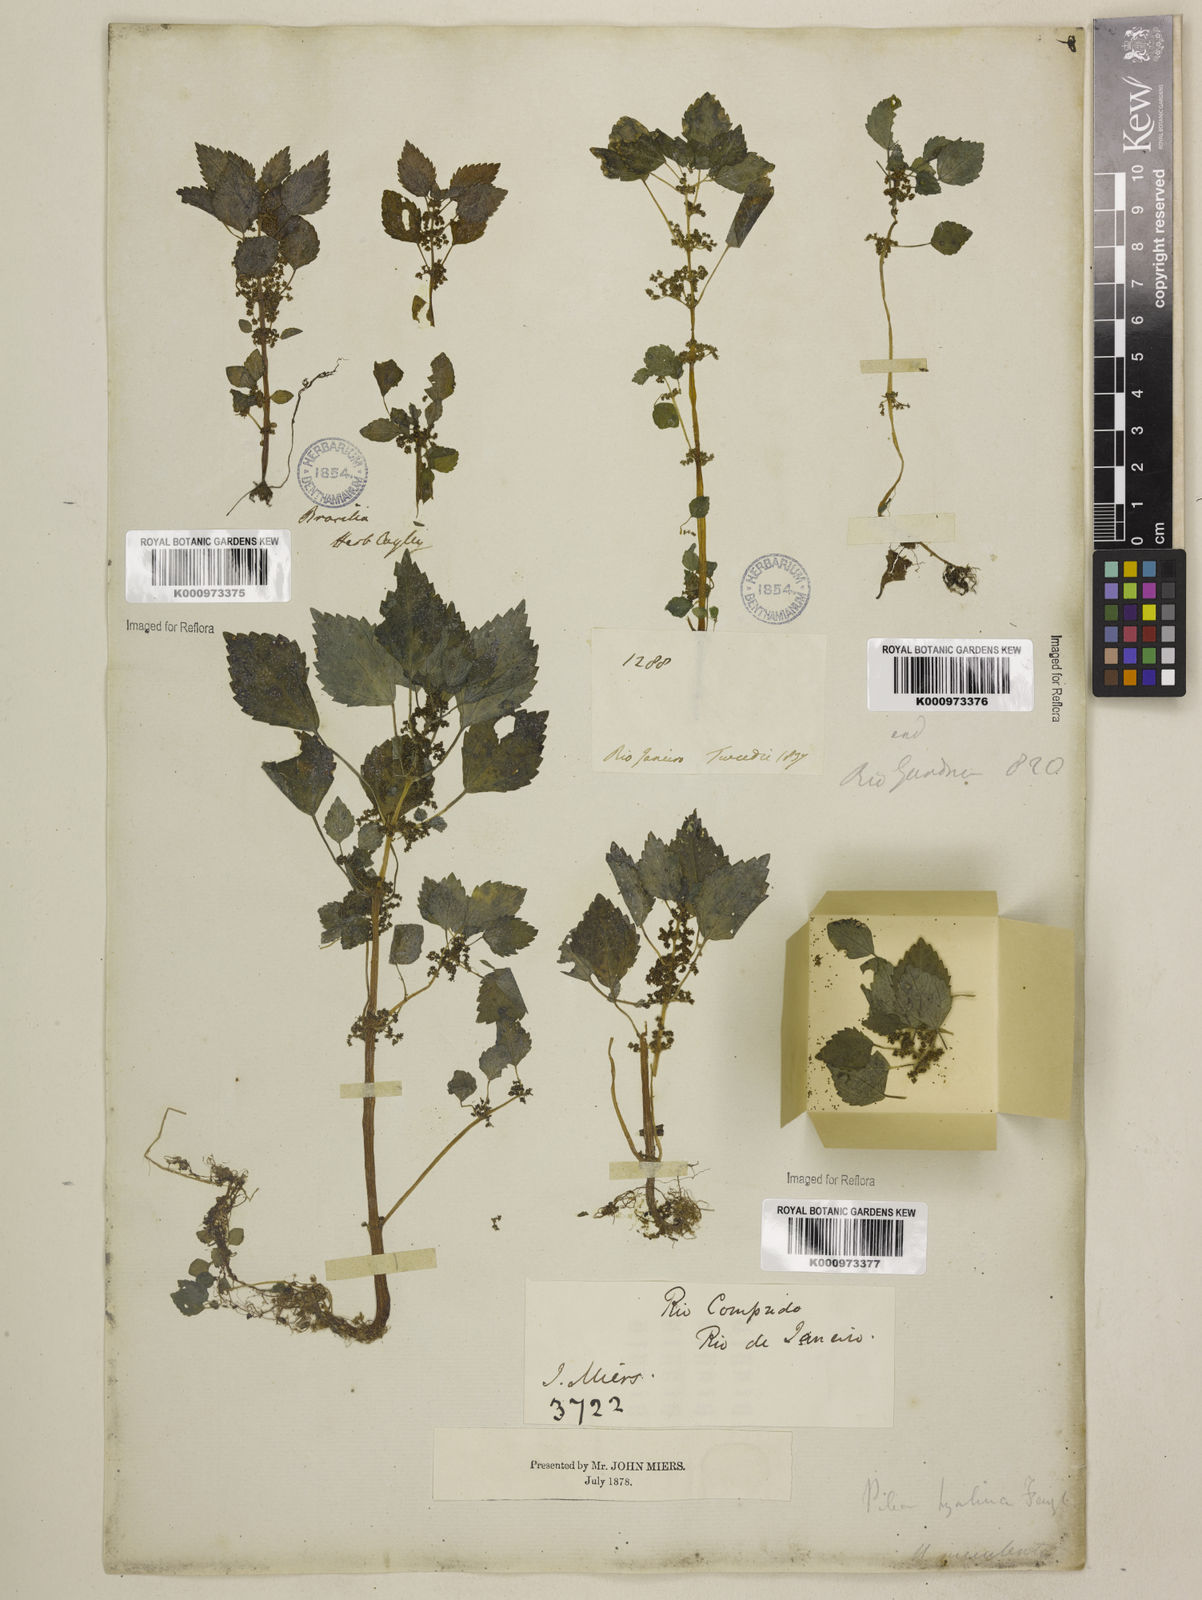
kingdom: Plantae
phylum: Tracheophyta
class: Magnoliopsida
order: Rosales
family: Urticaceae
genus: Pilea
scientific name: Pilea hyalina
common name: Virdrillo
